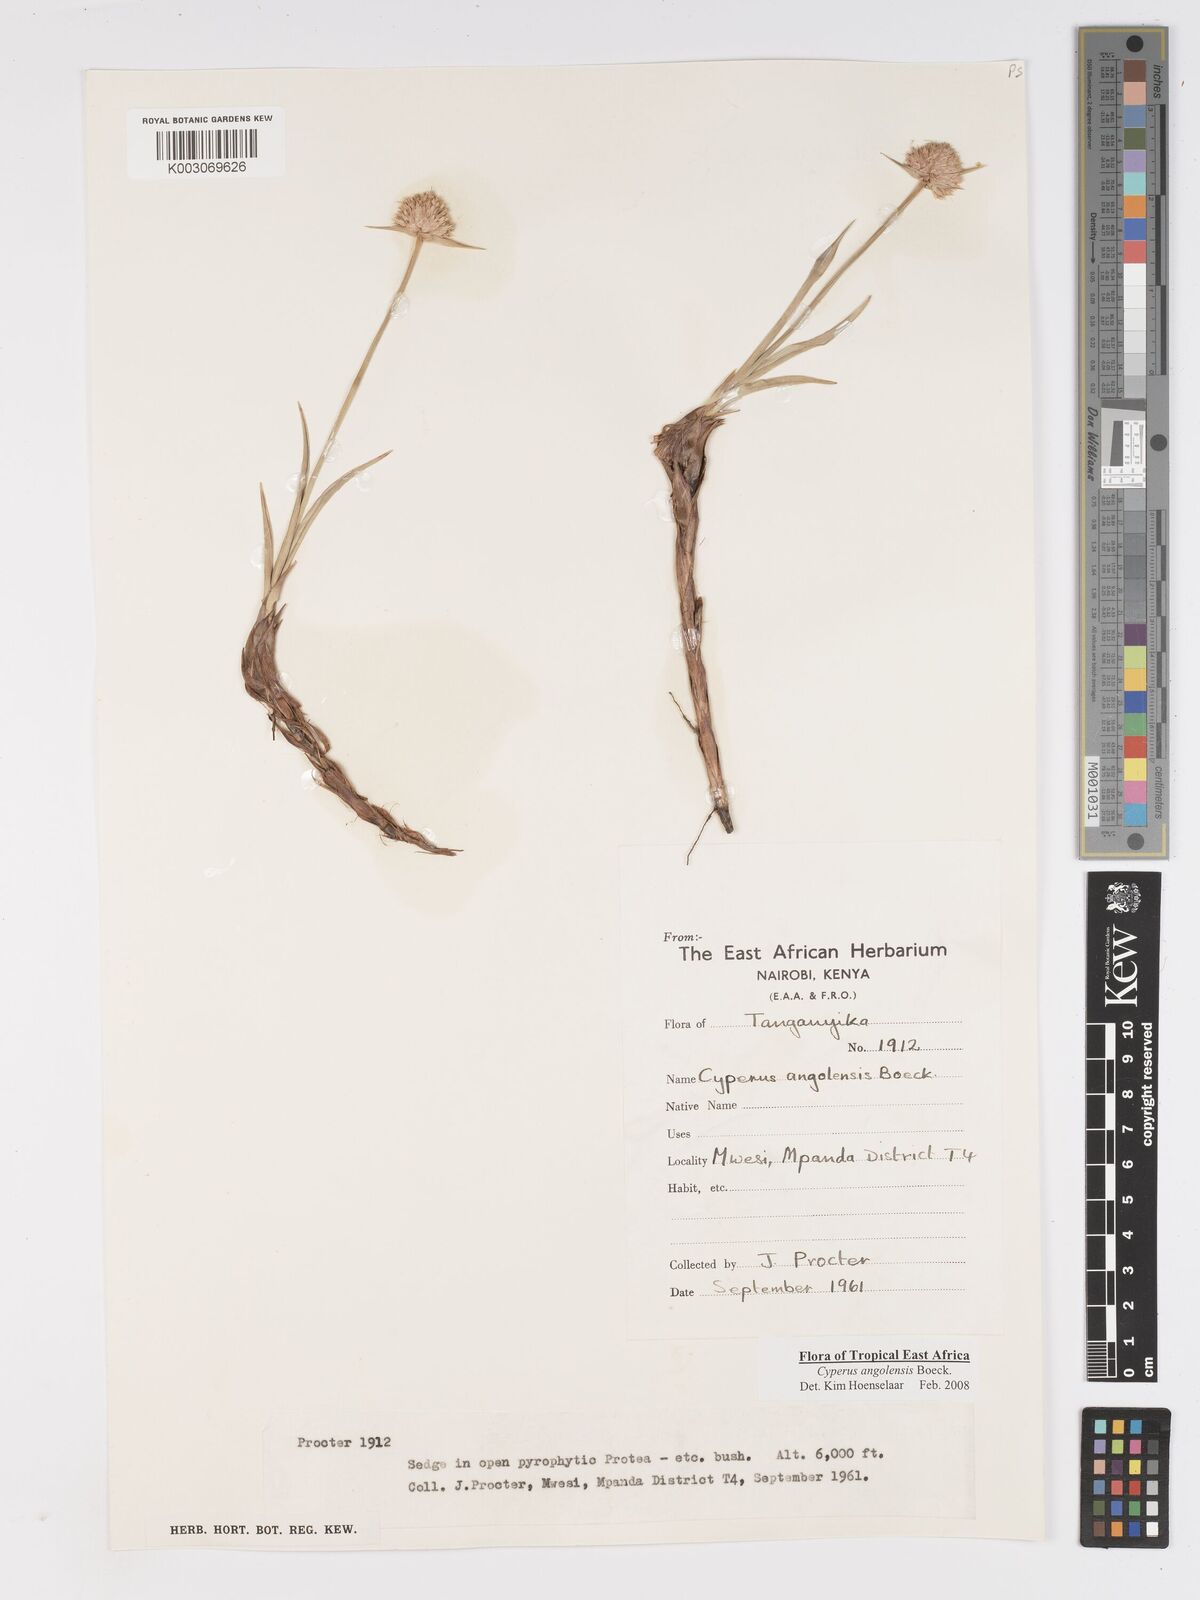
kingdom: Plantae
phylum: Tracheophyta
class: Liliopsida
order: Poales
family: Cyperaceae
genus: Cyperus
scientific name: Cyperus angolensis
